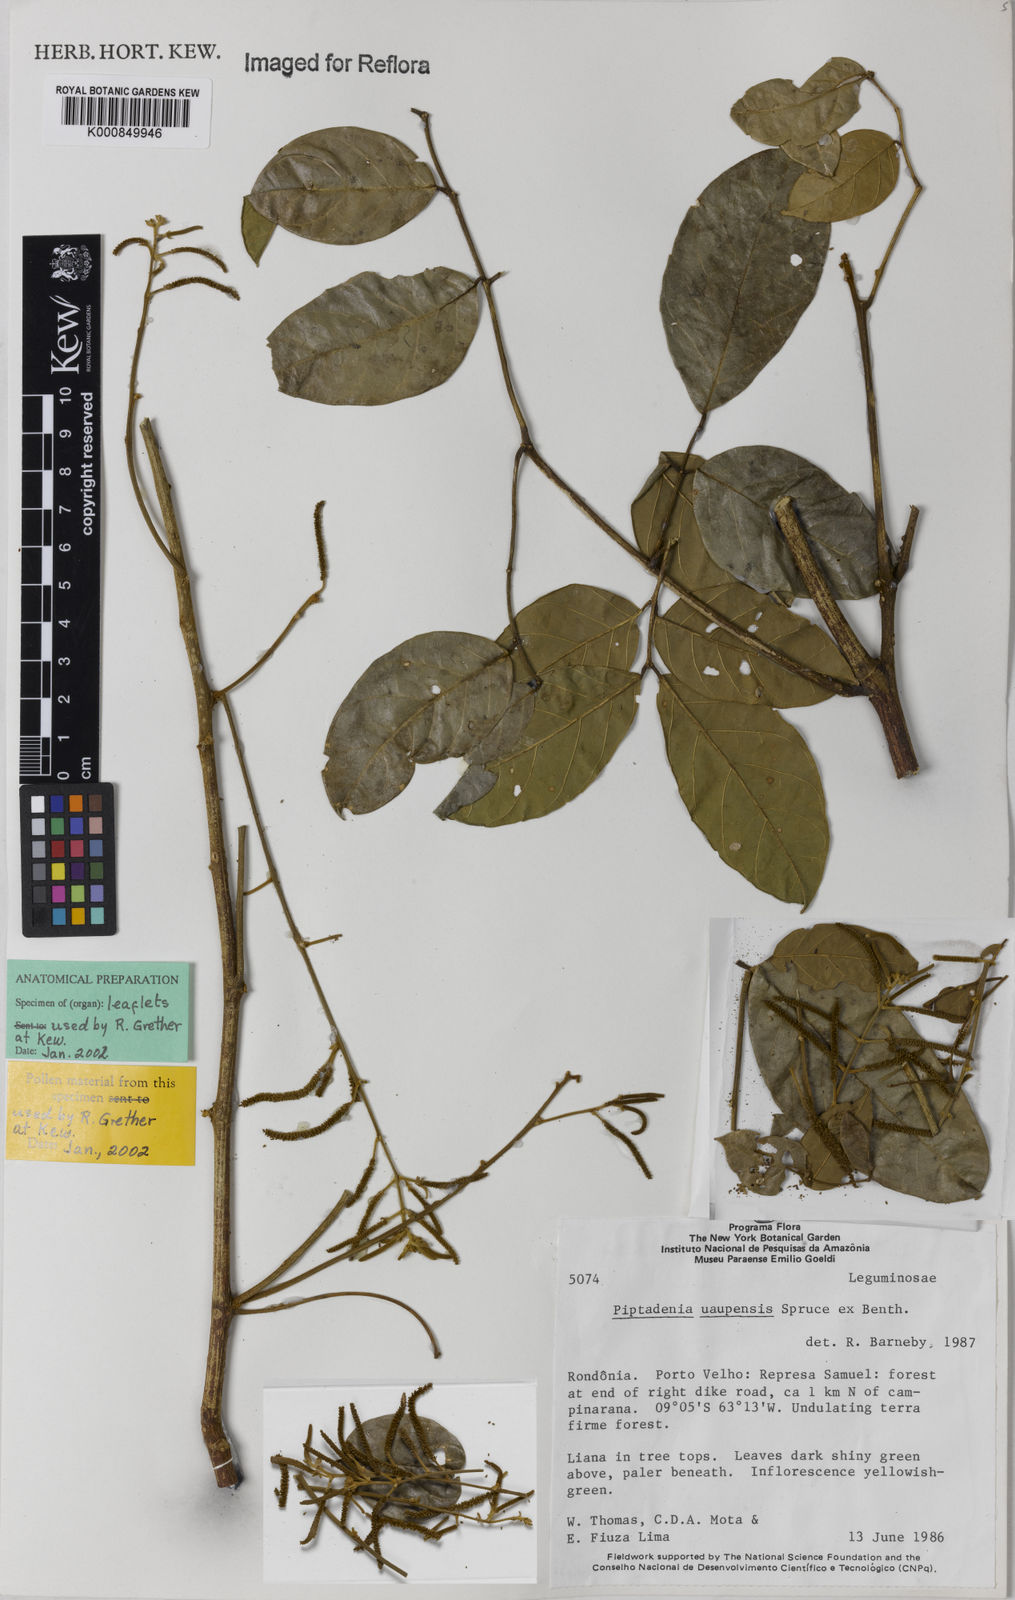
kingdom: Plantae
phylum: Tracheophyta
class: Magnoliopsida
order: Fabales
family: Fabaceae
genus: Piptadenia
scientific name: Piptadenia
